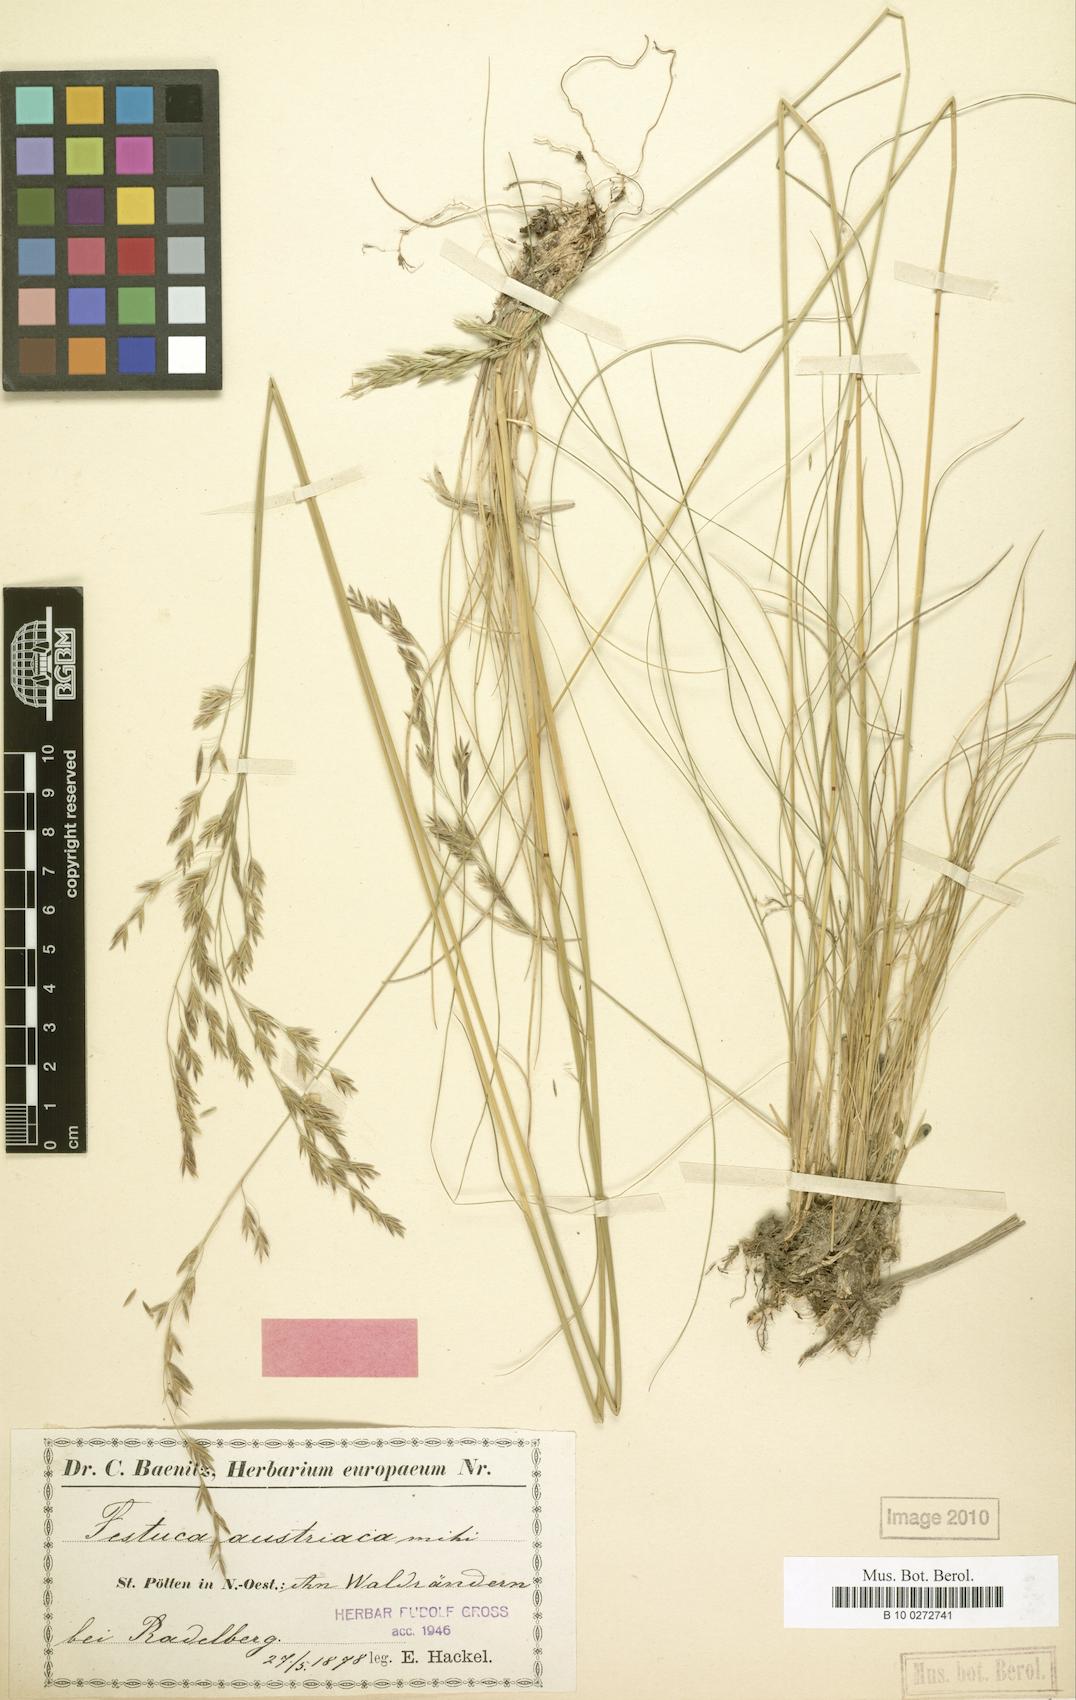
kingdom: Plantae
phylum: Tracheophyta
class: Liliopsida
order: Poales
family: Poaceae
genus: Festuca
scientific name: Festuca amethystina
